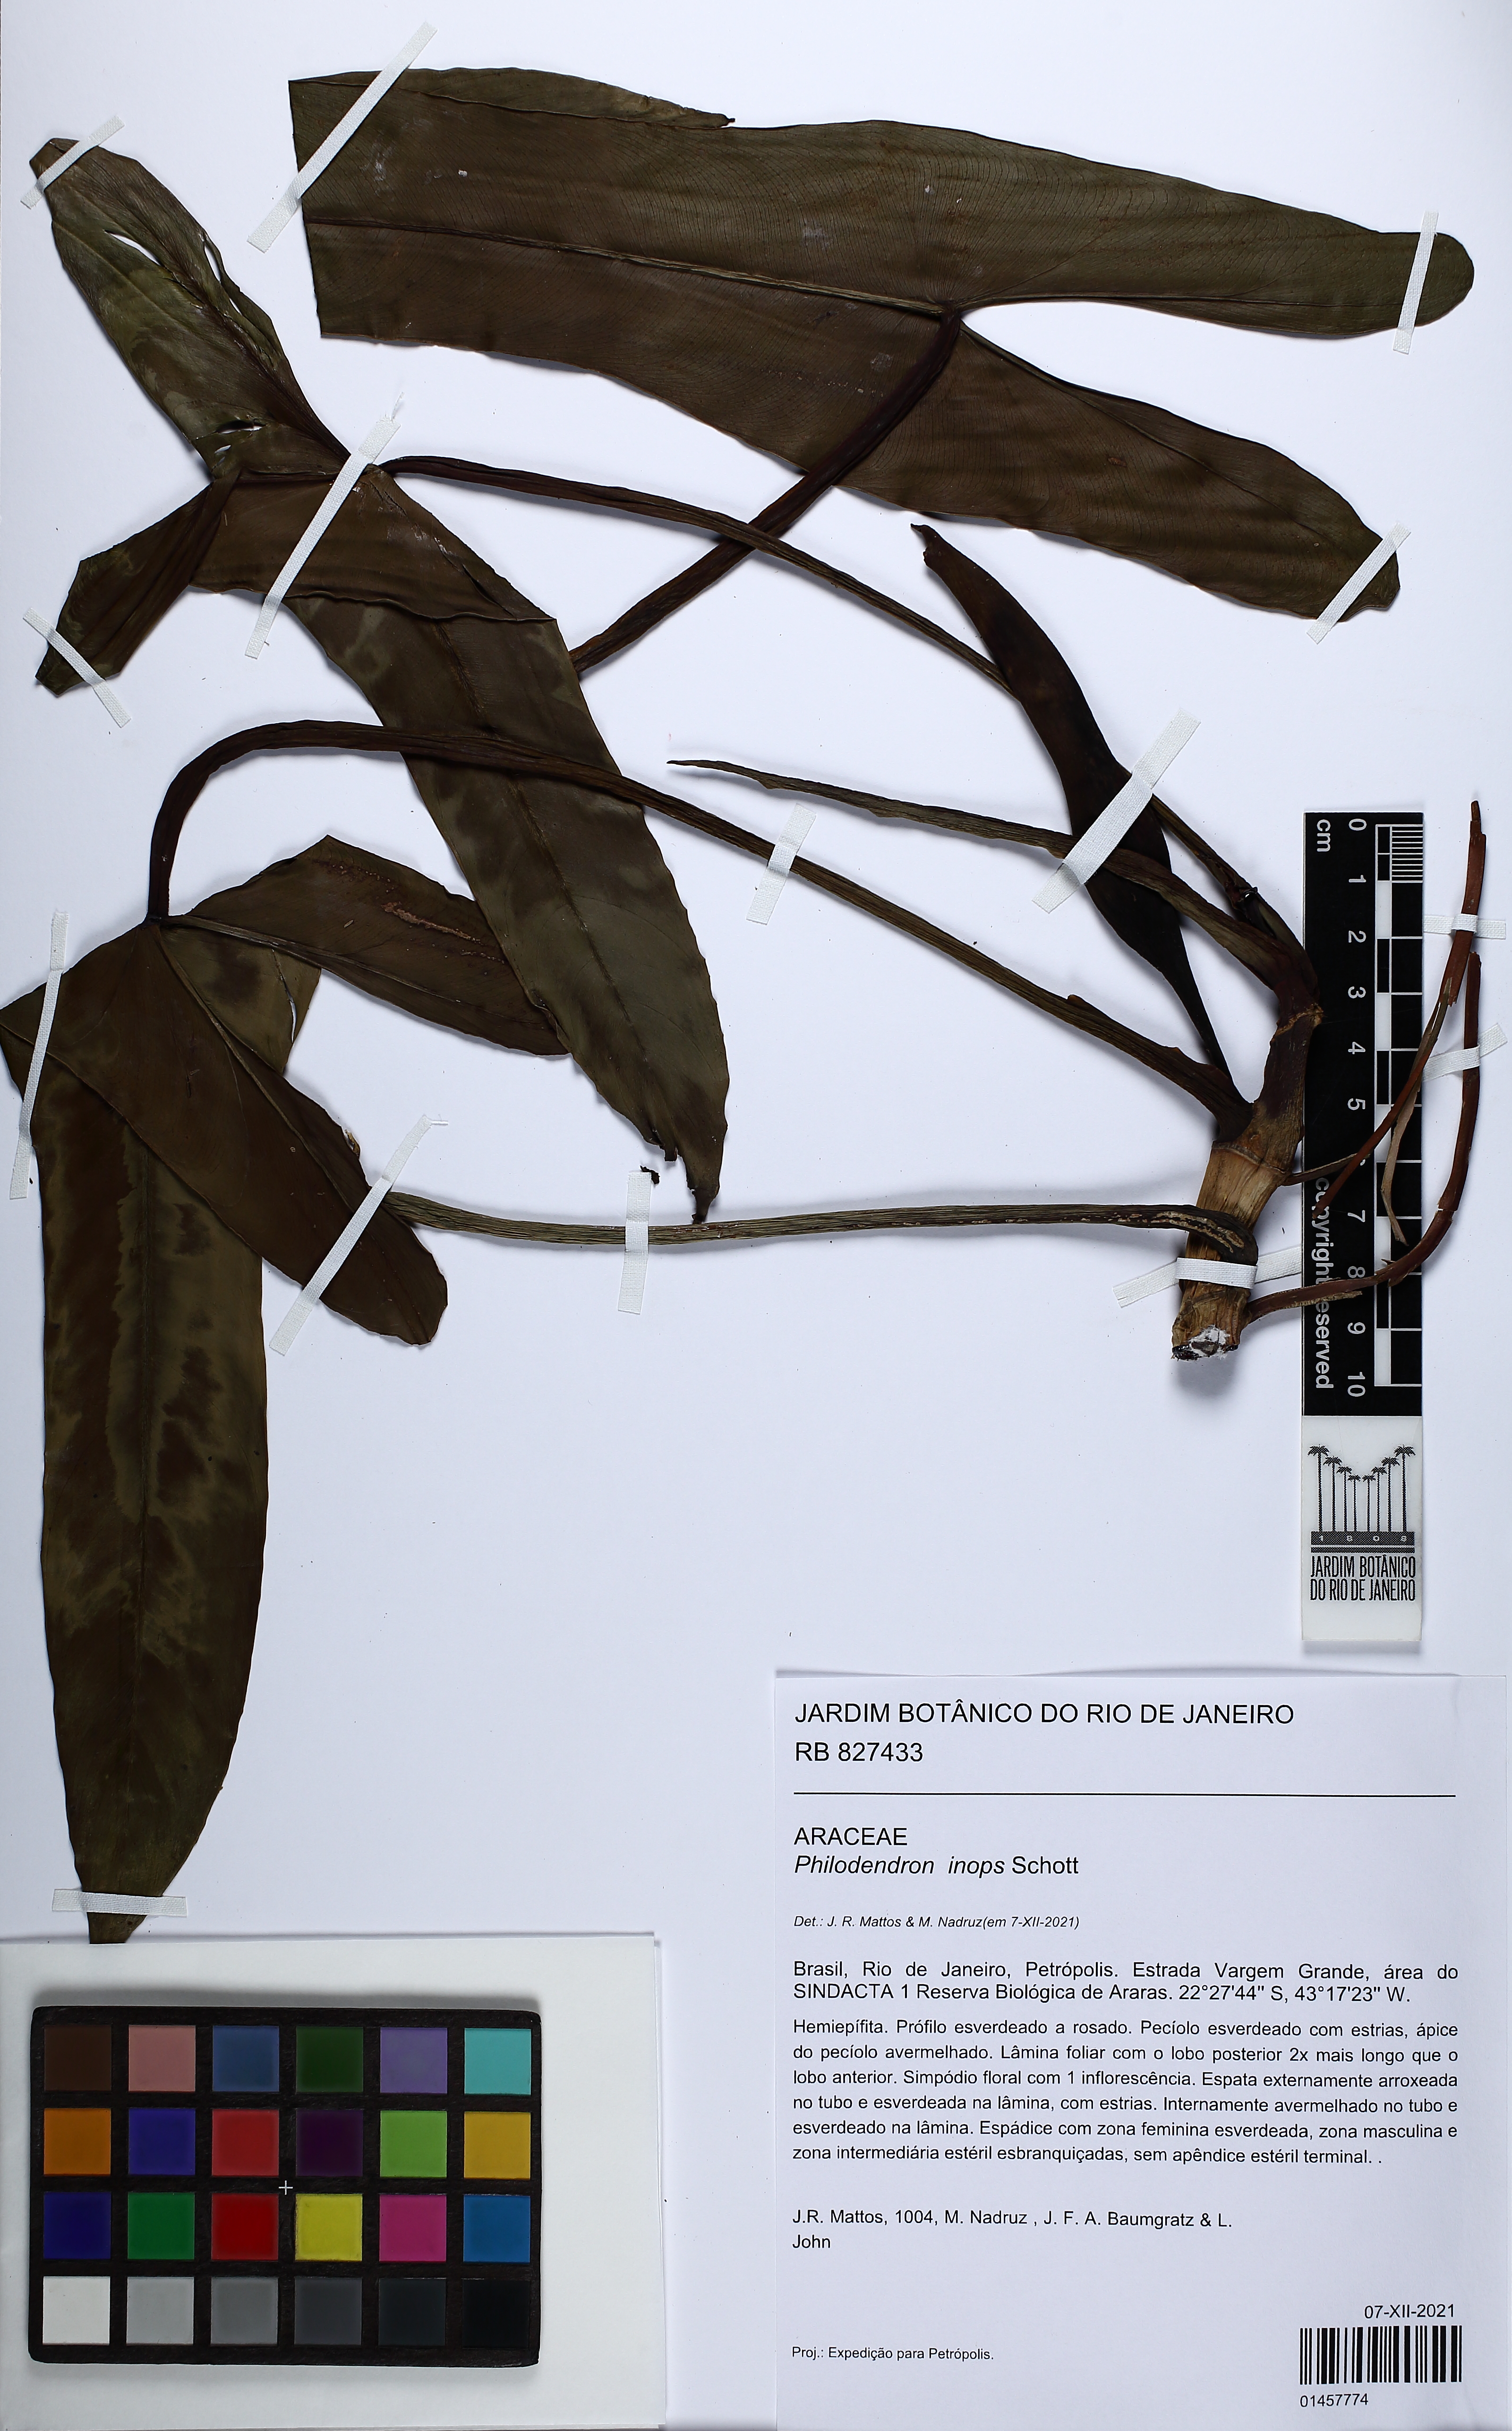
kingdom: Plantae
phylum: Tracheophyta
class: Liliopsida
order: Alismatales
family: Araceae
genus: Philodendron
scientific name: Philodendron inops
